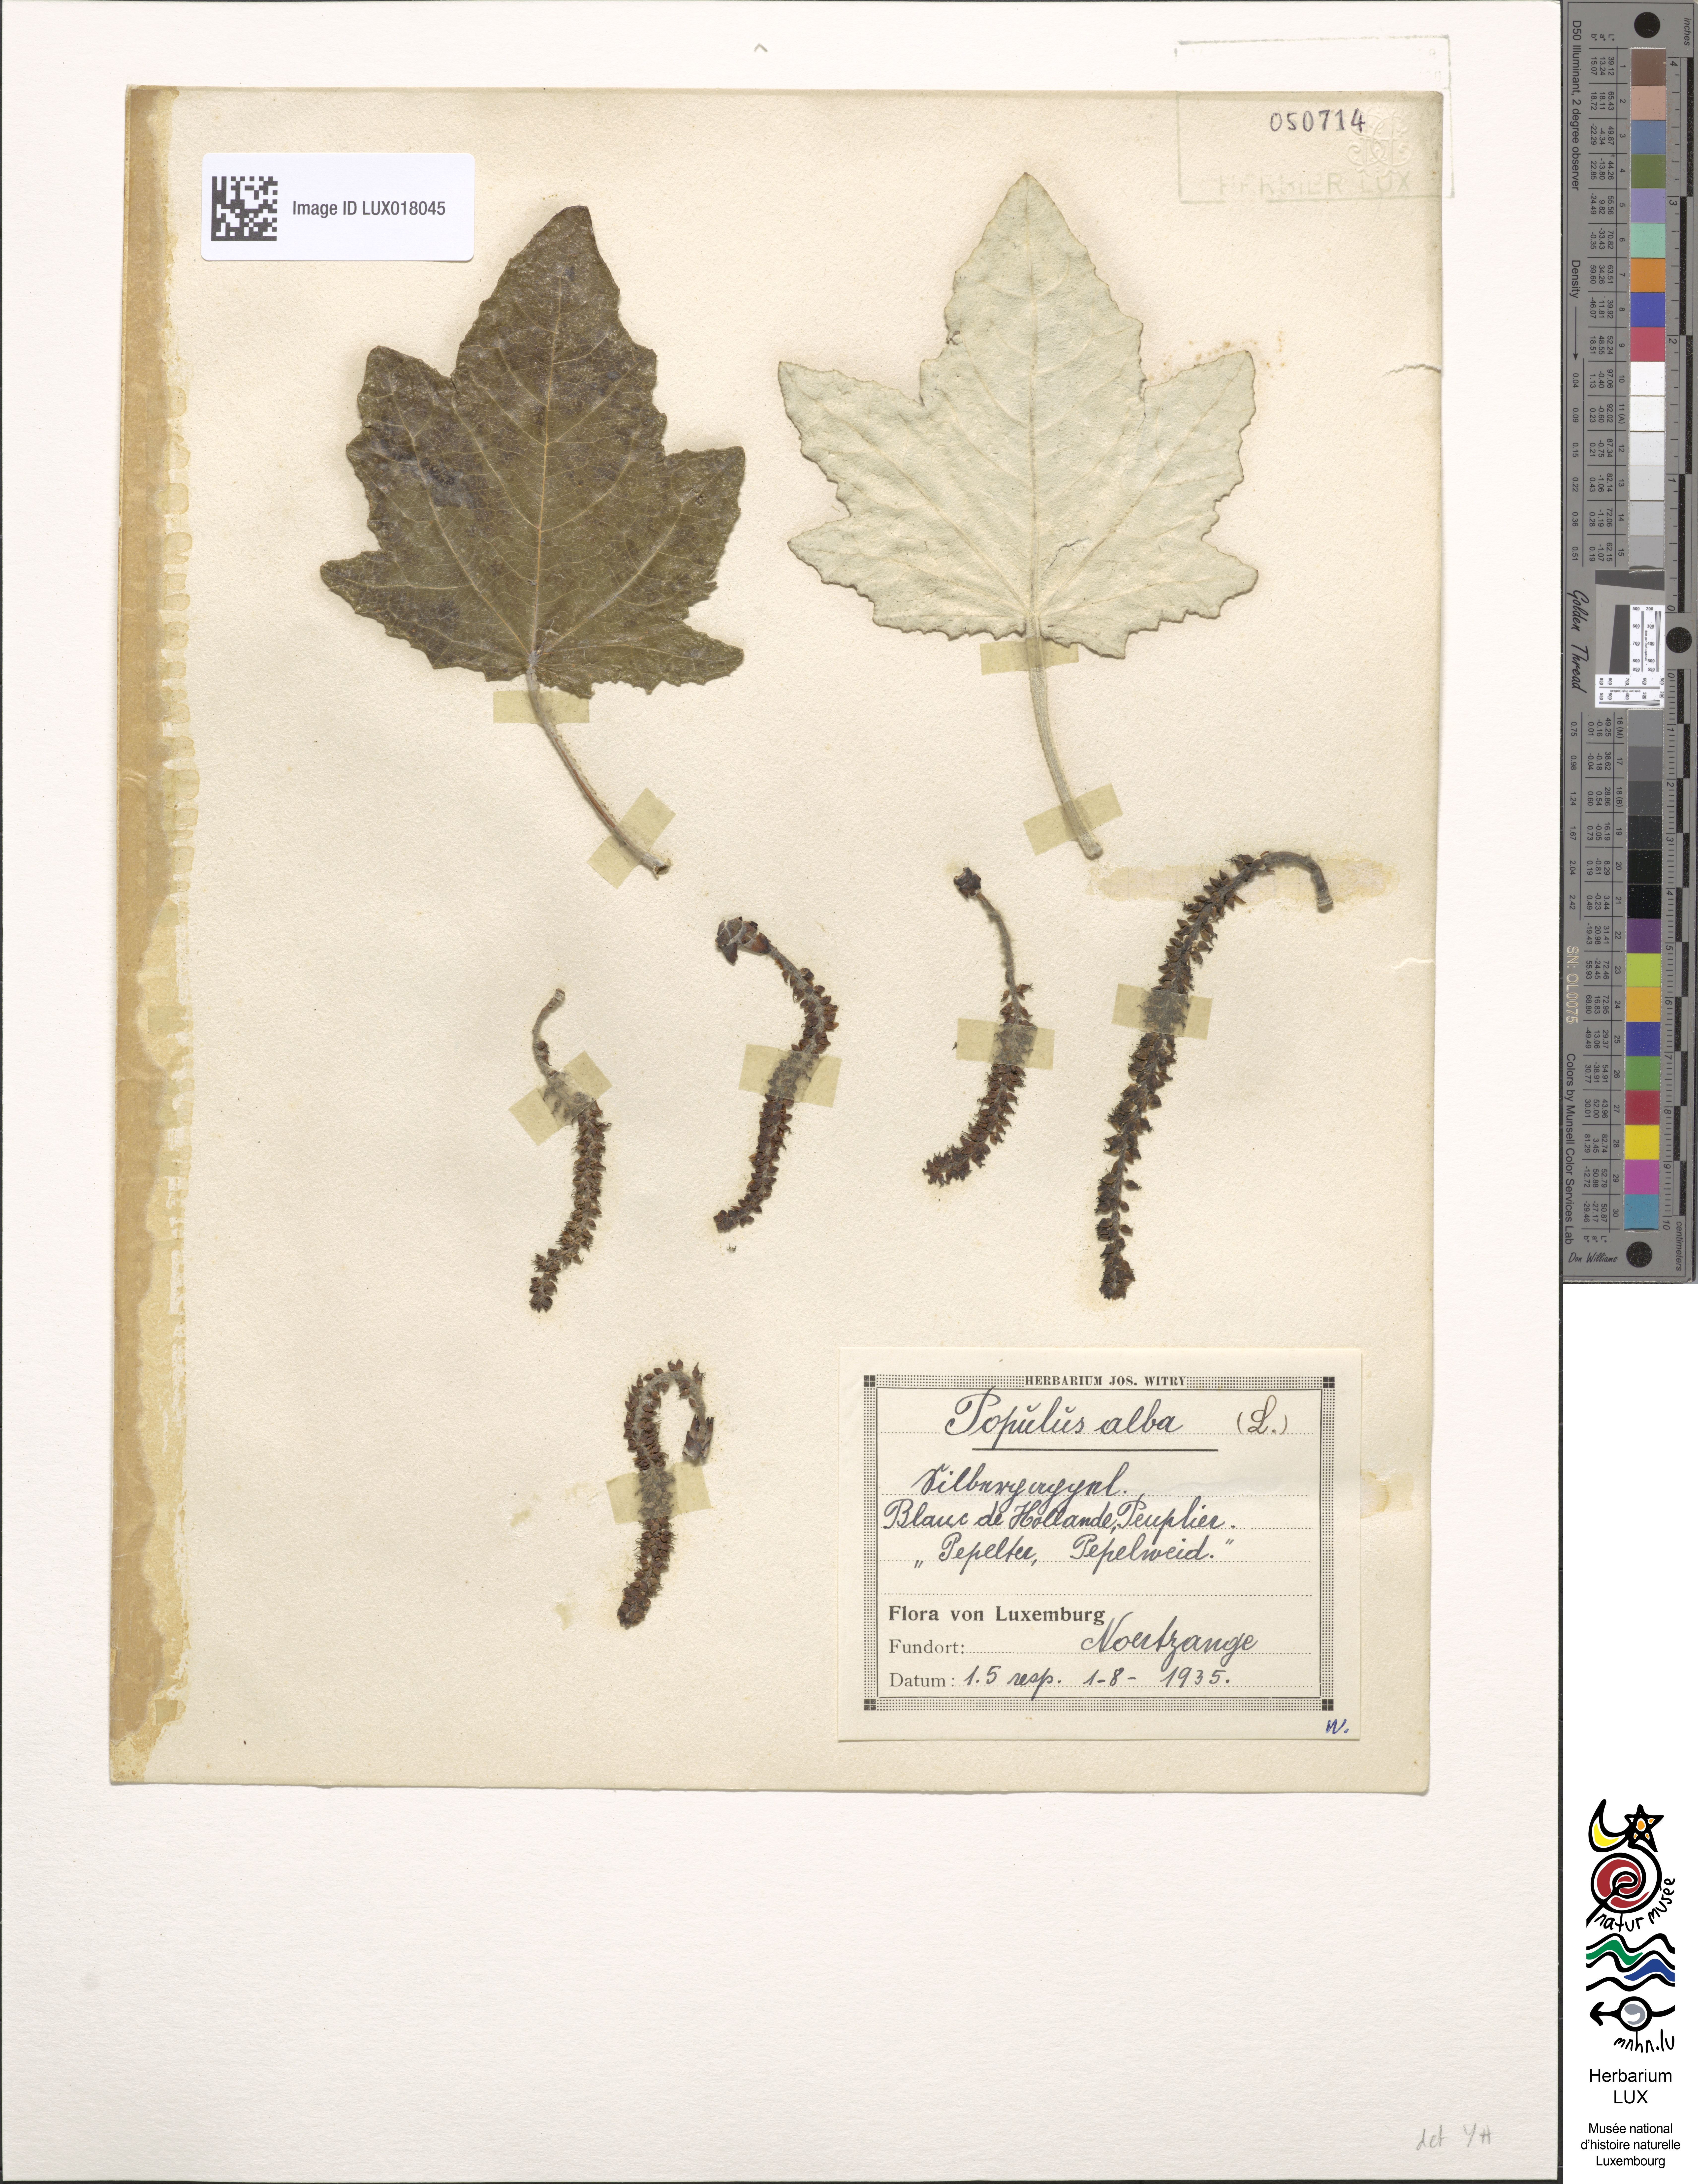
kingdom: Plantae
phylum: Tracheophyta
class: Magnoliopsida
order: Malpighiales
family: Salicaceae
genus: Populus
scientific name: Populus alba
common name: White poplar
